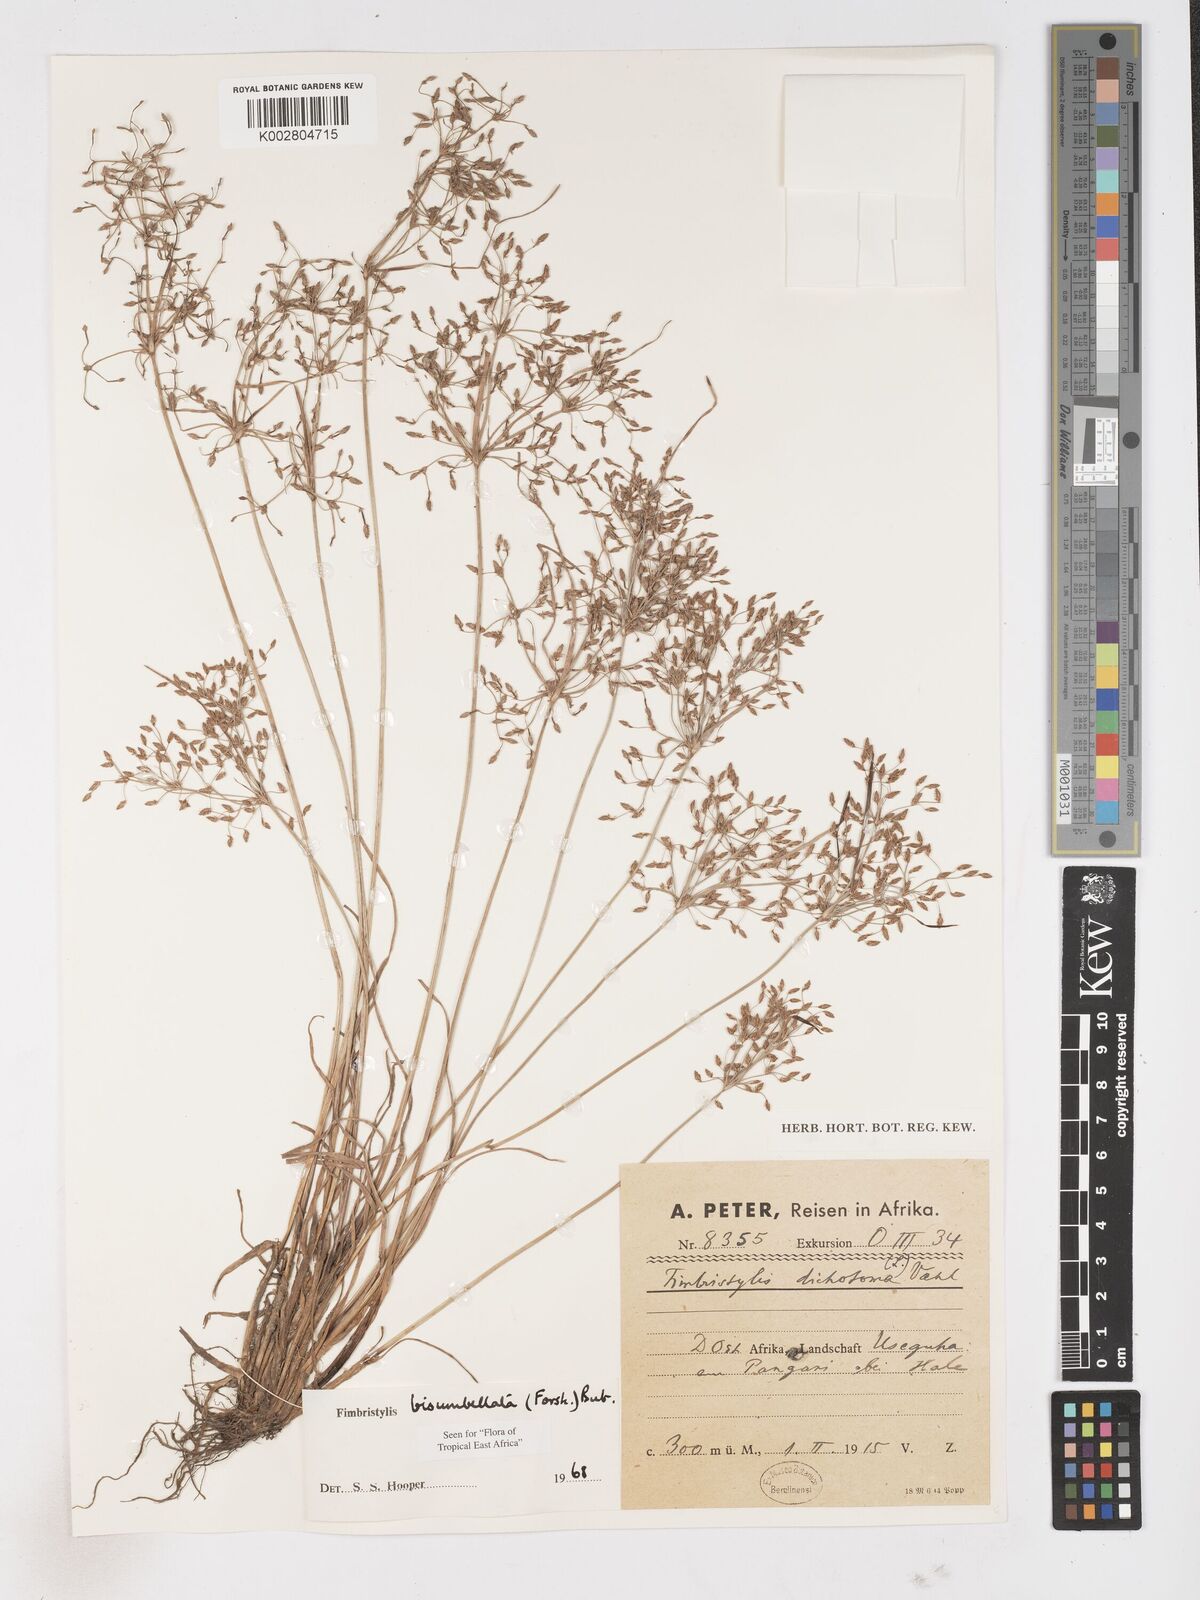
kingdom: Plantae
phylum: Tracheophyta
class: Liliopsida
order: Poales
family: Cyperaceae
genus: Fimbristylis
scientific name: Fimbristylis bisumbellata
